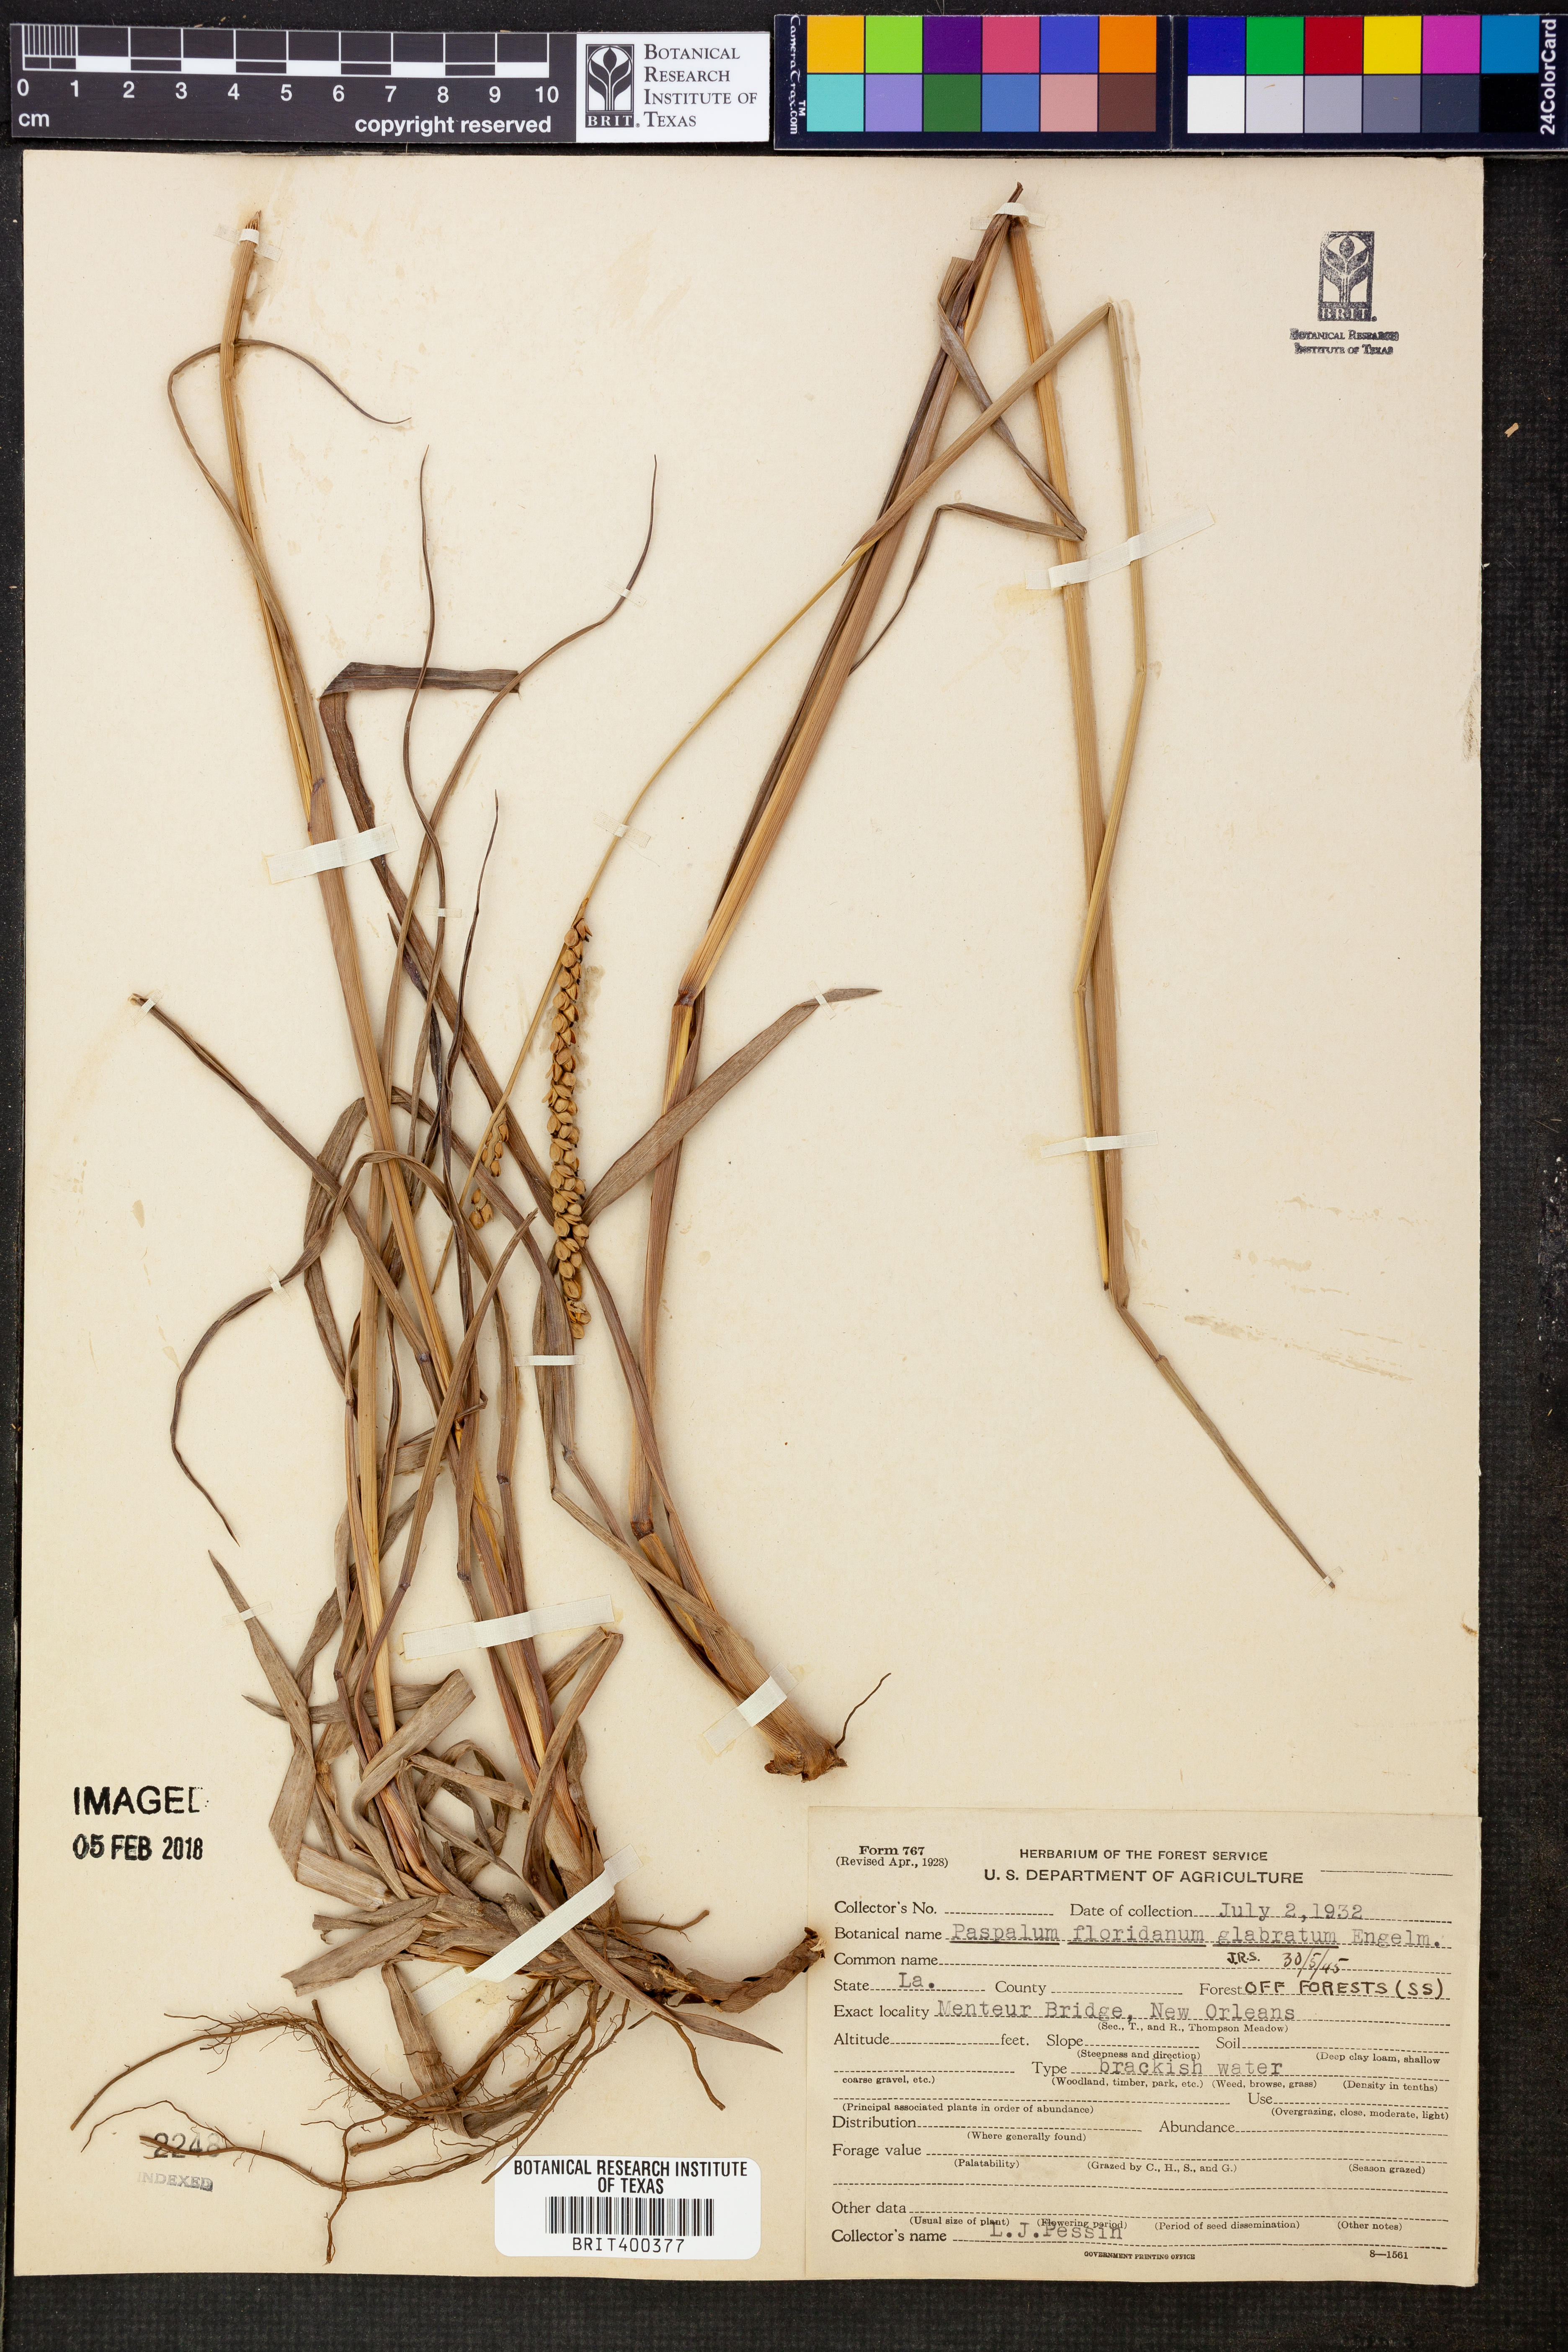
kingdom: Plantae
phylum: Tracheophyta
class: Liliopsida
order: Poales
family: Poaceae
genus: Paspalum
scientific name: Paspalum floridanum
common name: Florida paspalum
